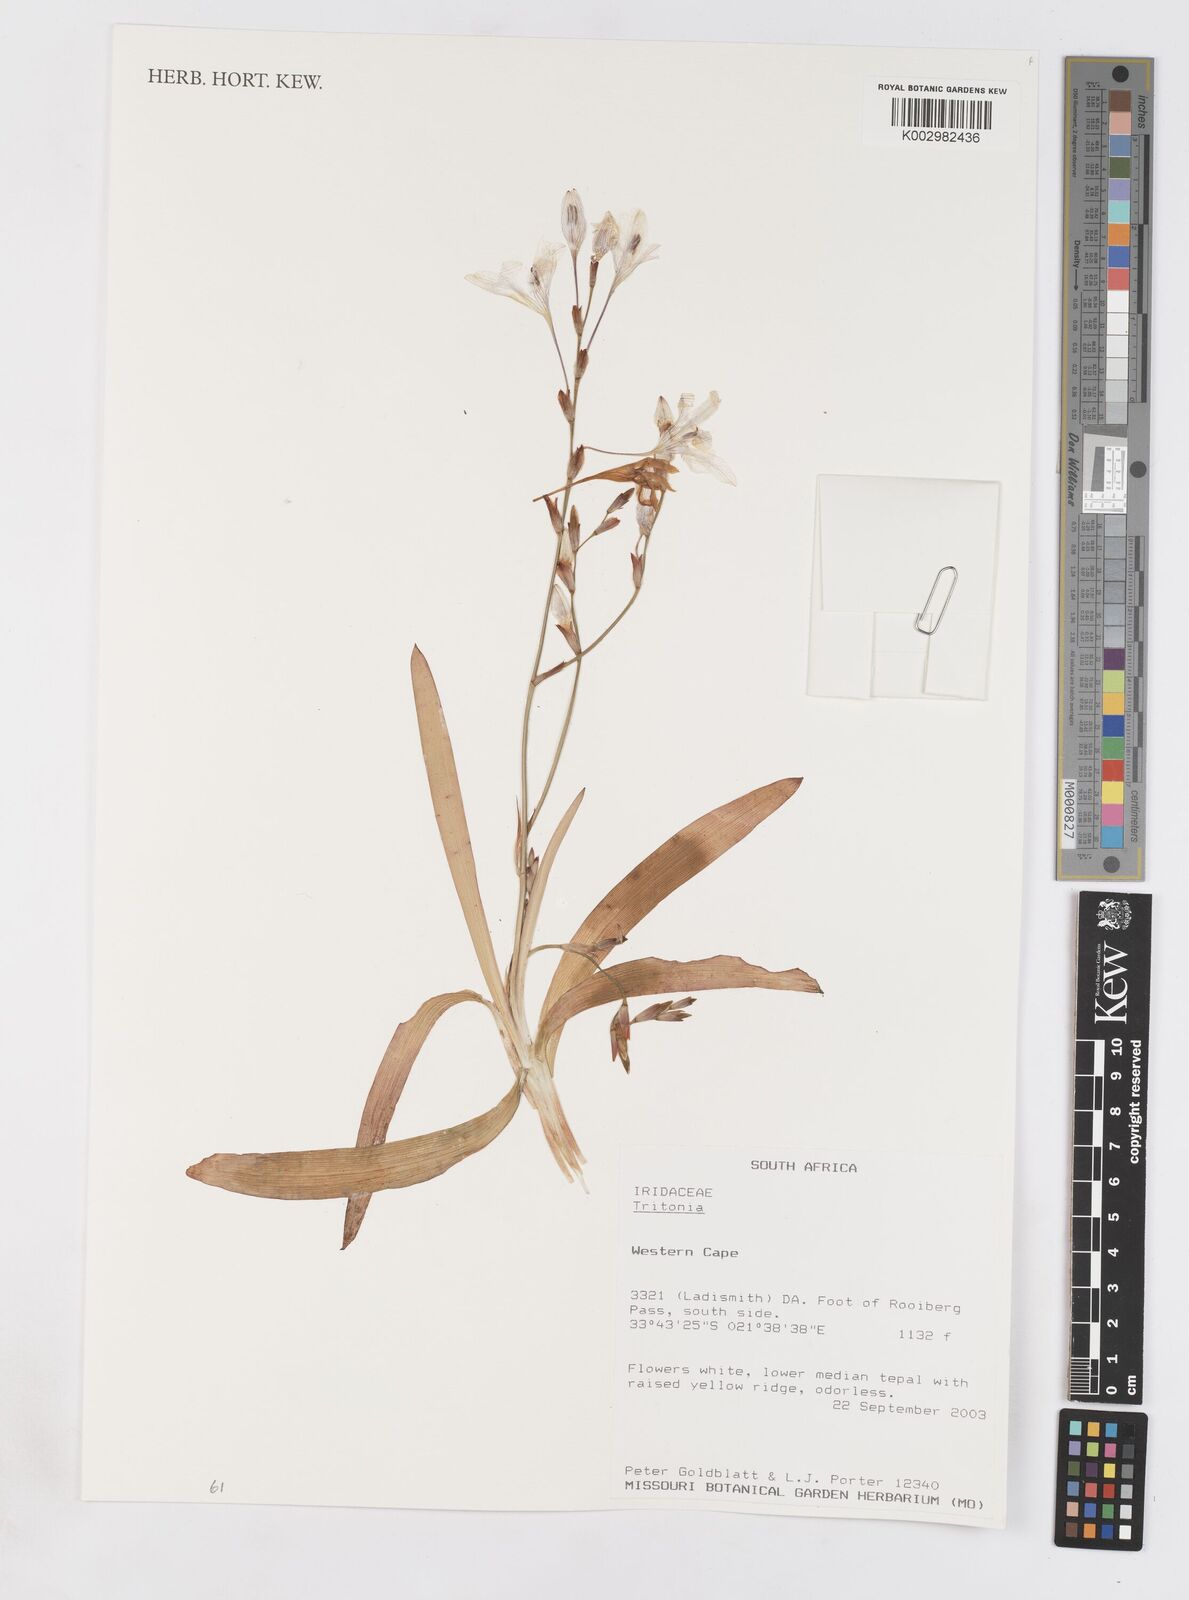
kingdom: Plantae
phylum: Tracheophyta
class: Liliopsida
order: Asparagales
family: Iridaceae
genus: Tritonia
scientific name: Tritonia
